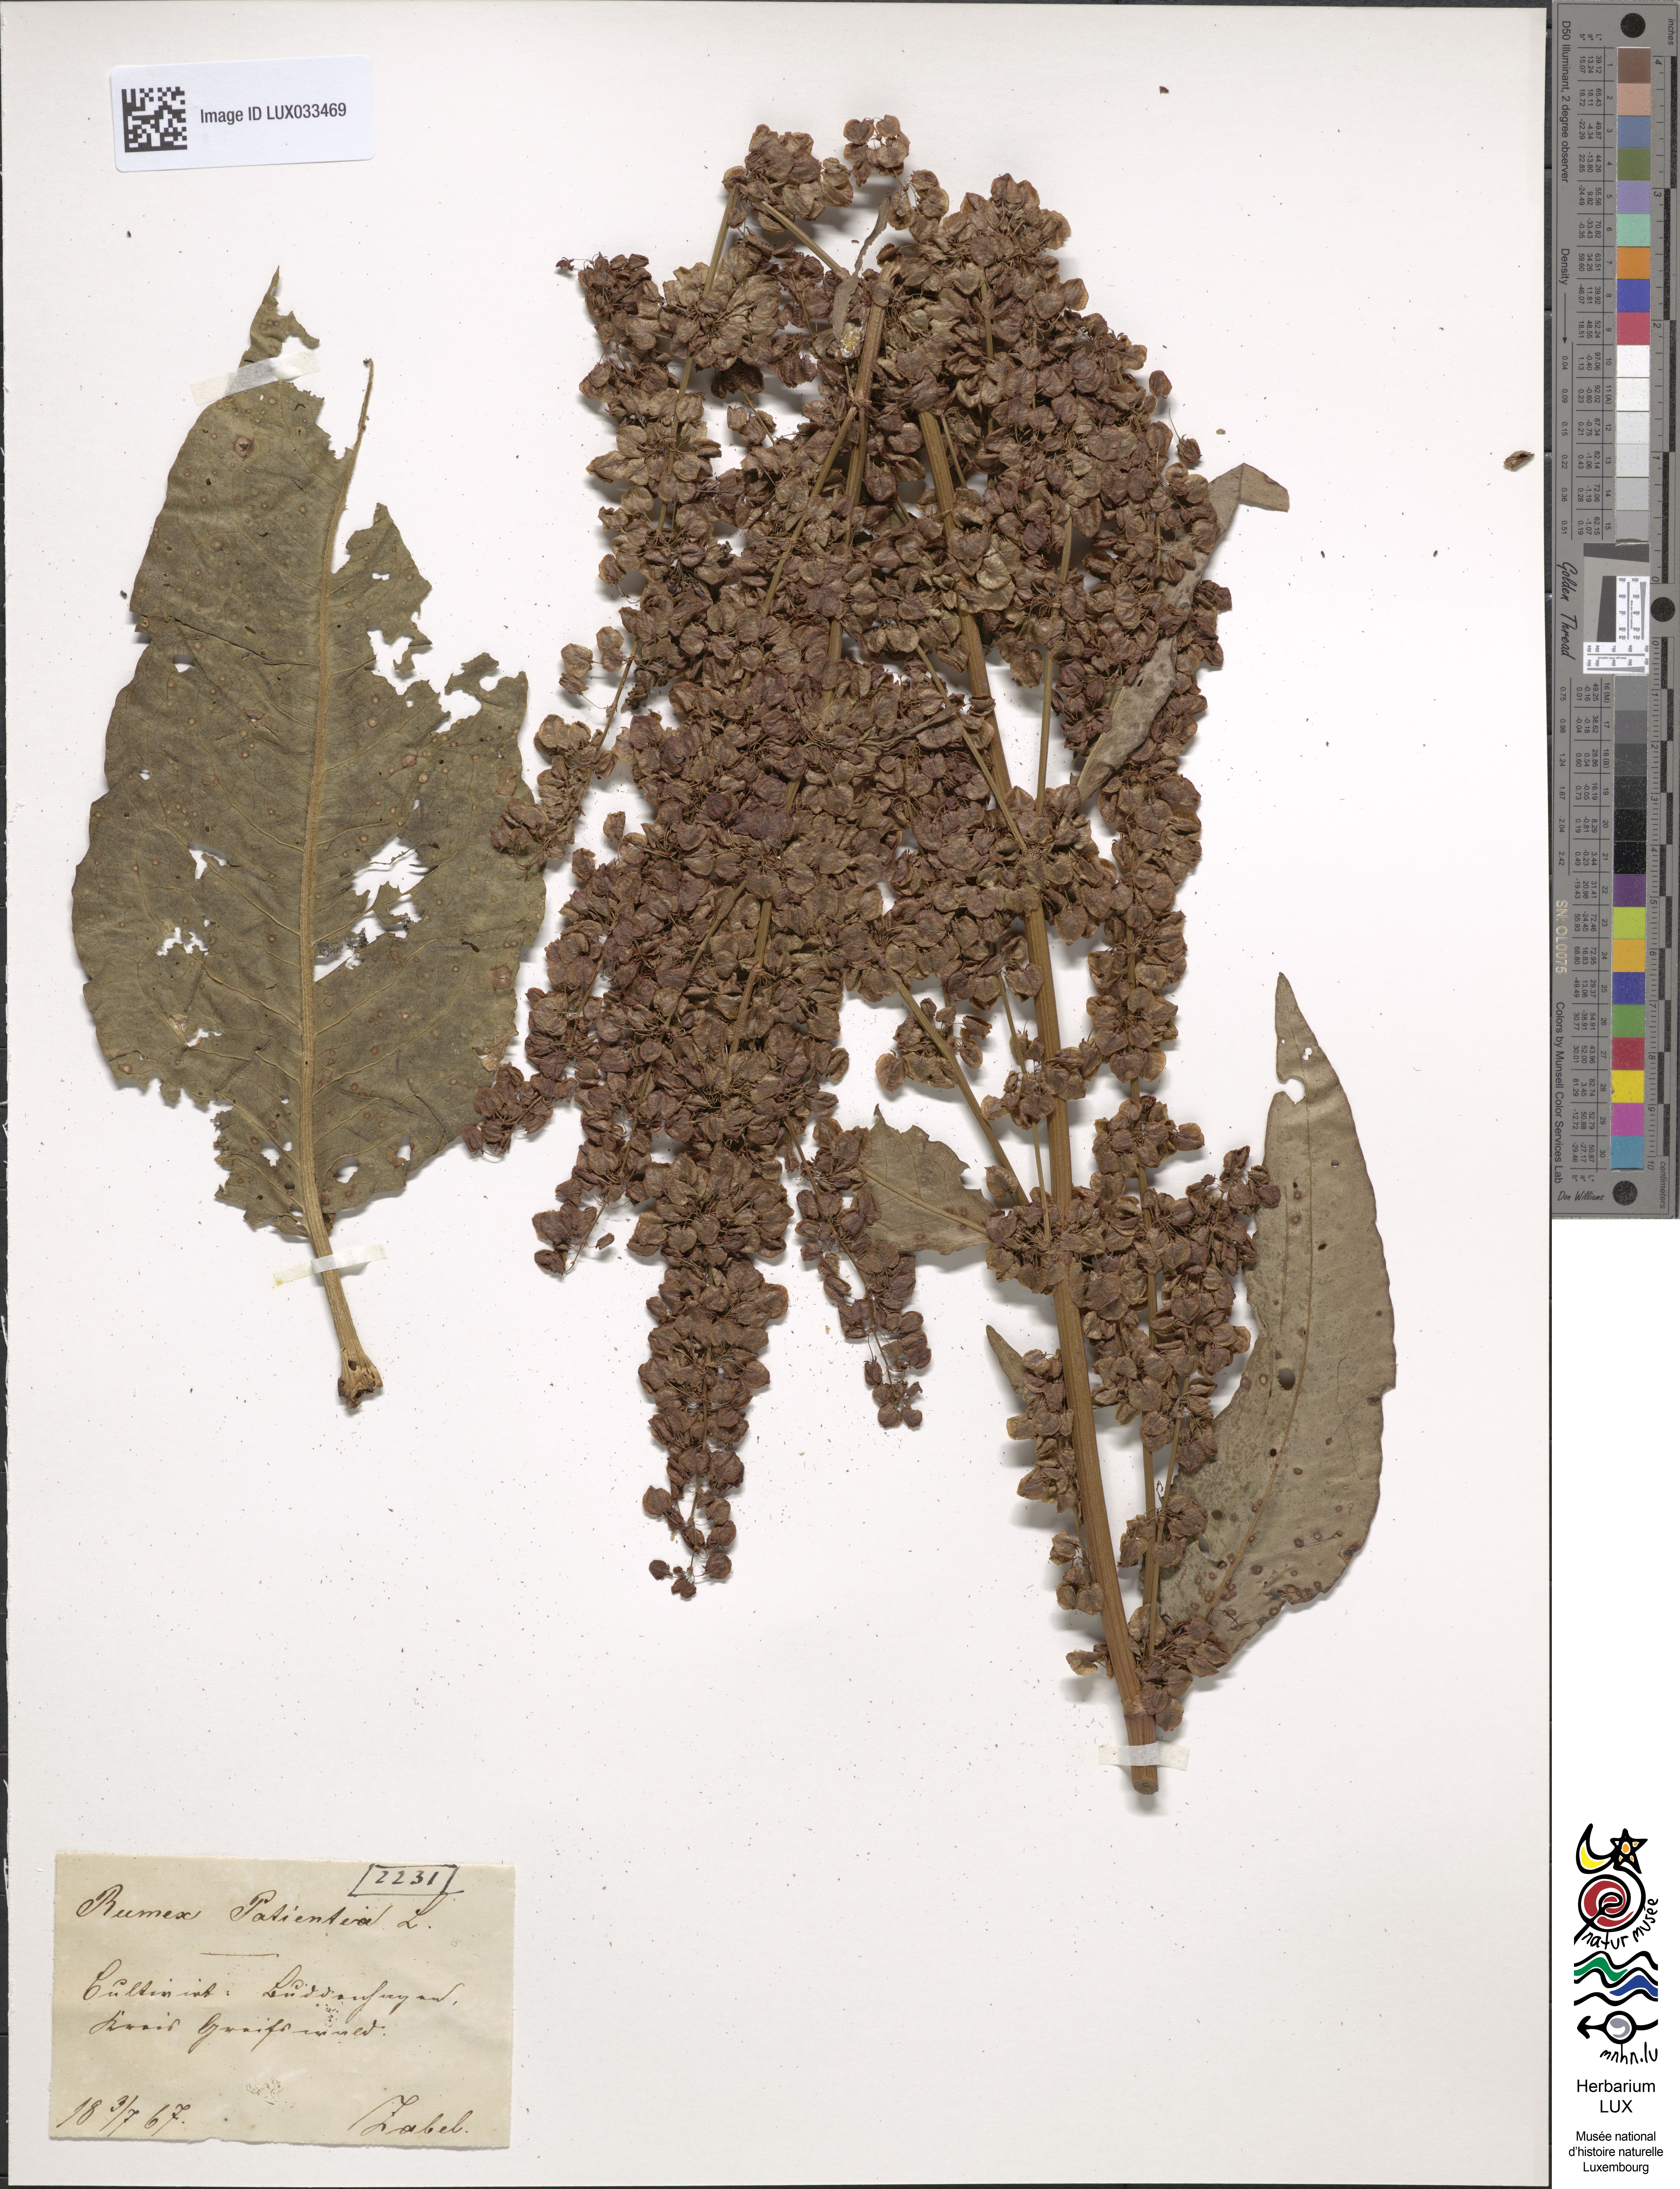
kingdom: Plantae
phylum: Tracheophyta
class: Magnoliopsida
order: Caryophyllales
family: Polygonaceae
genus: Rumex
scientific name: Rumex patientia
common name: Patience dock
